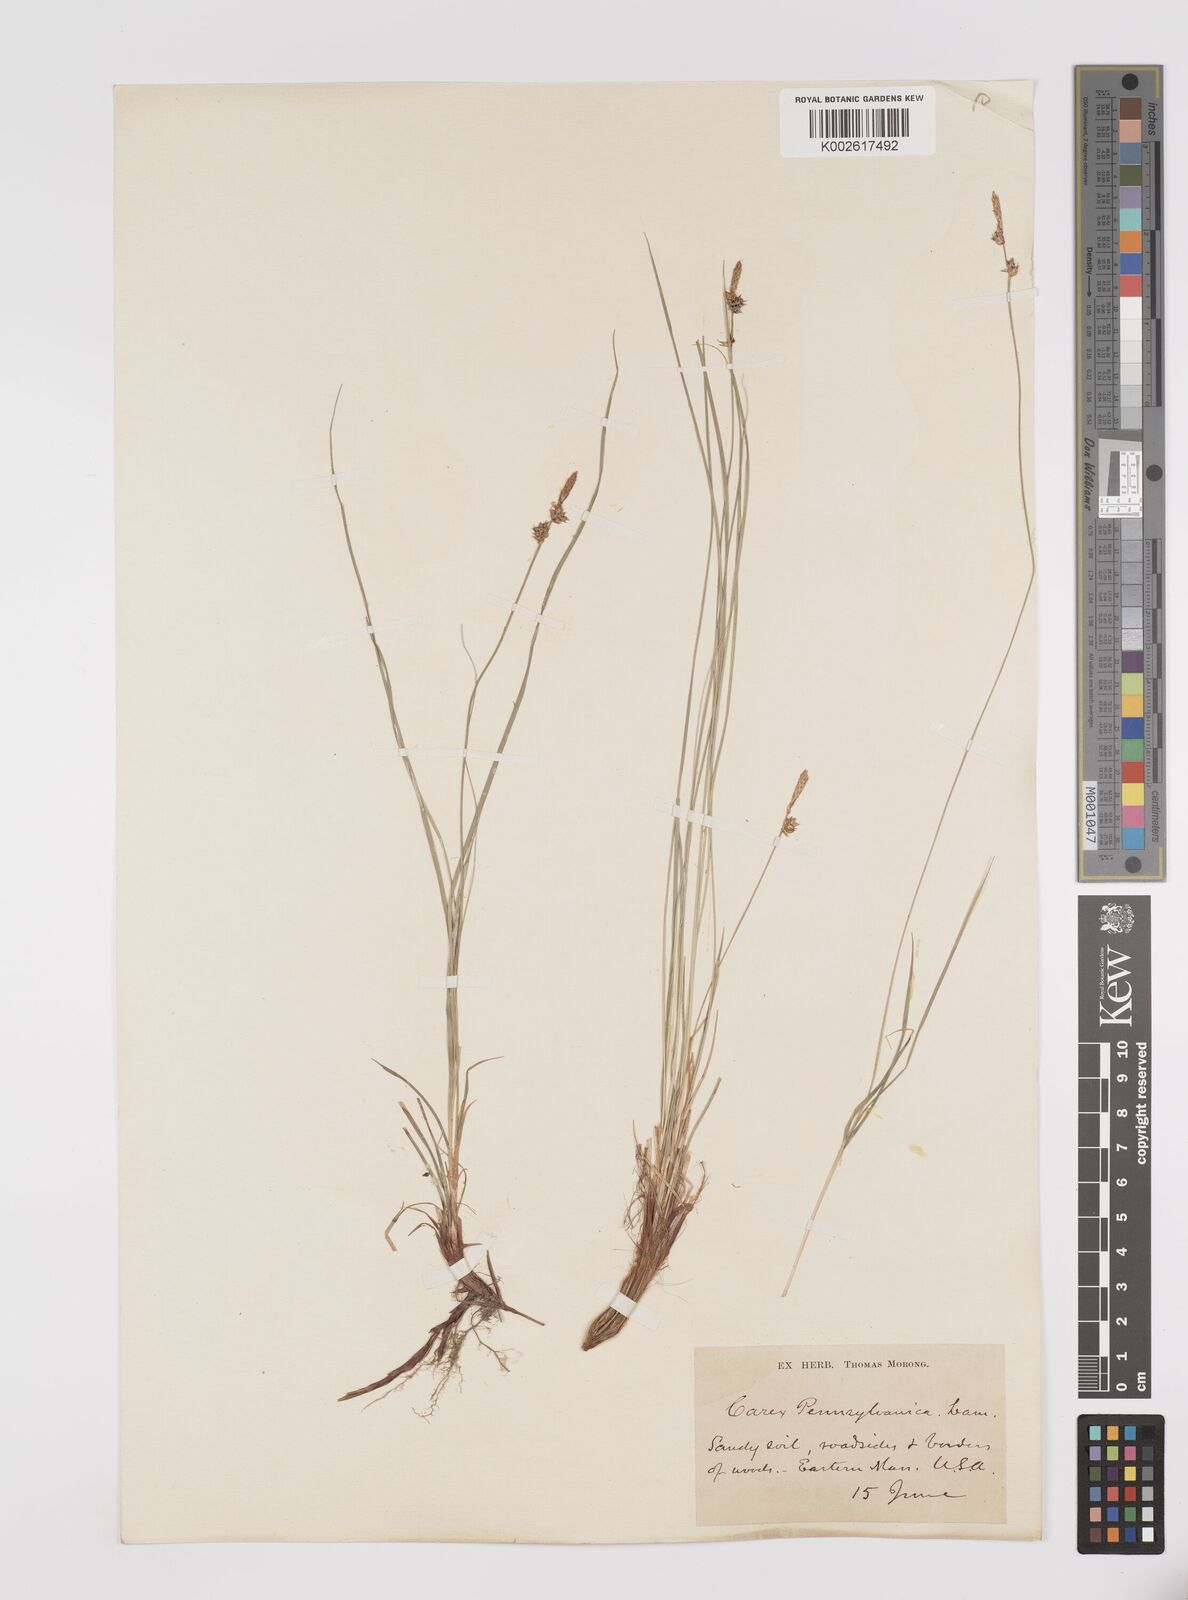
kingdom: Plantae
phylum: Tracheophyta
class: Liliopsida
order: Poales
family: Cyperaceae
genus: Carex
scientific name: Carex pensylvanica
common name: Common oak sedge
